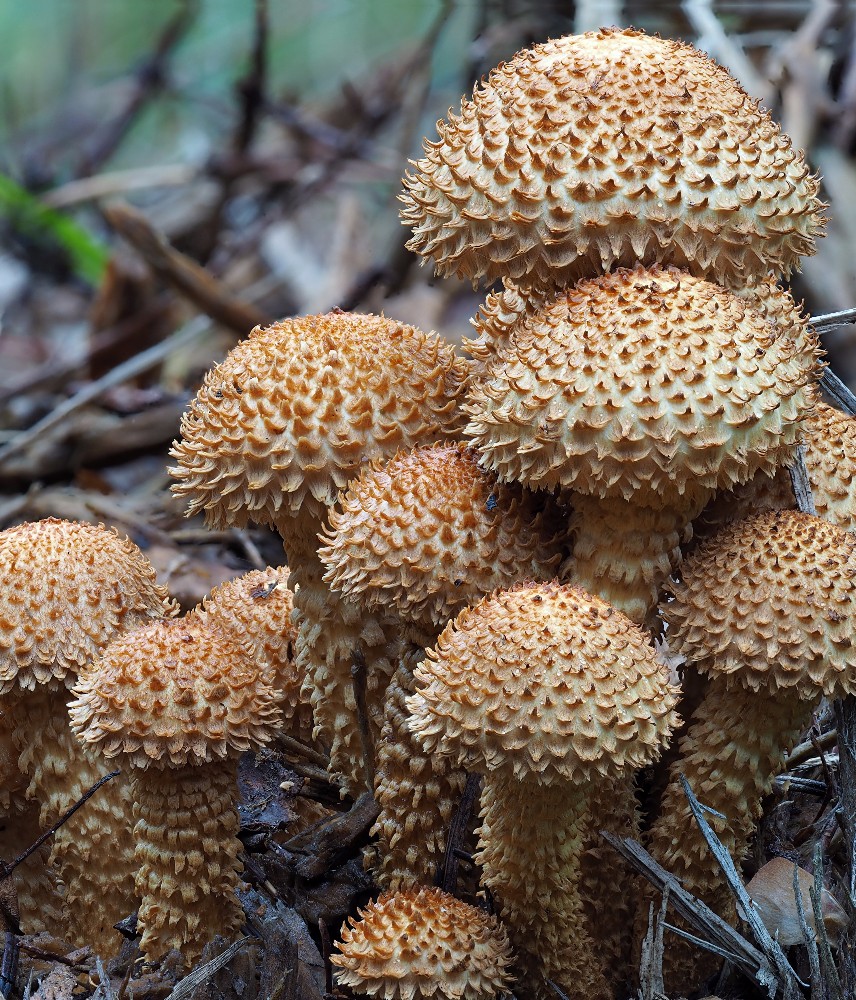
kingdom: Fungi
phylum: Basidiomycota
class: Agaricomycetes
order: Agaricales
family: Strophariaceae
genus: Pholiota
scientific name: Pholiota squarrosa
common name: krumskællet skælhat
